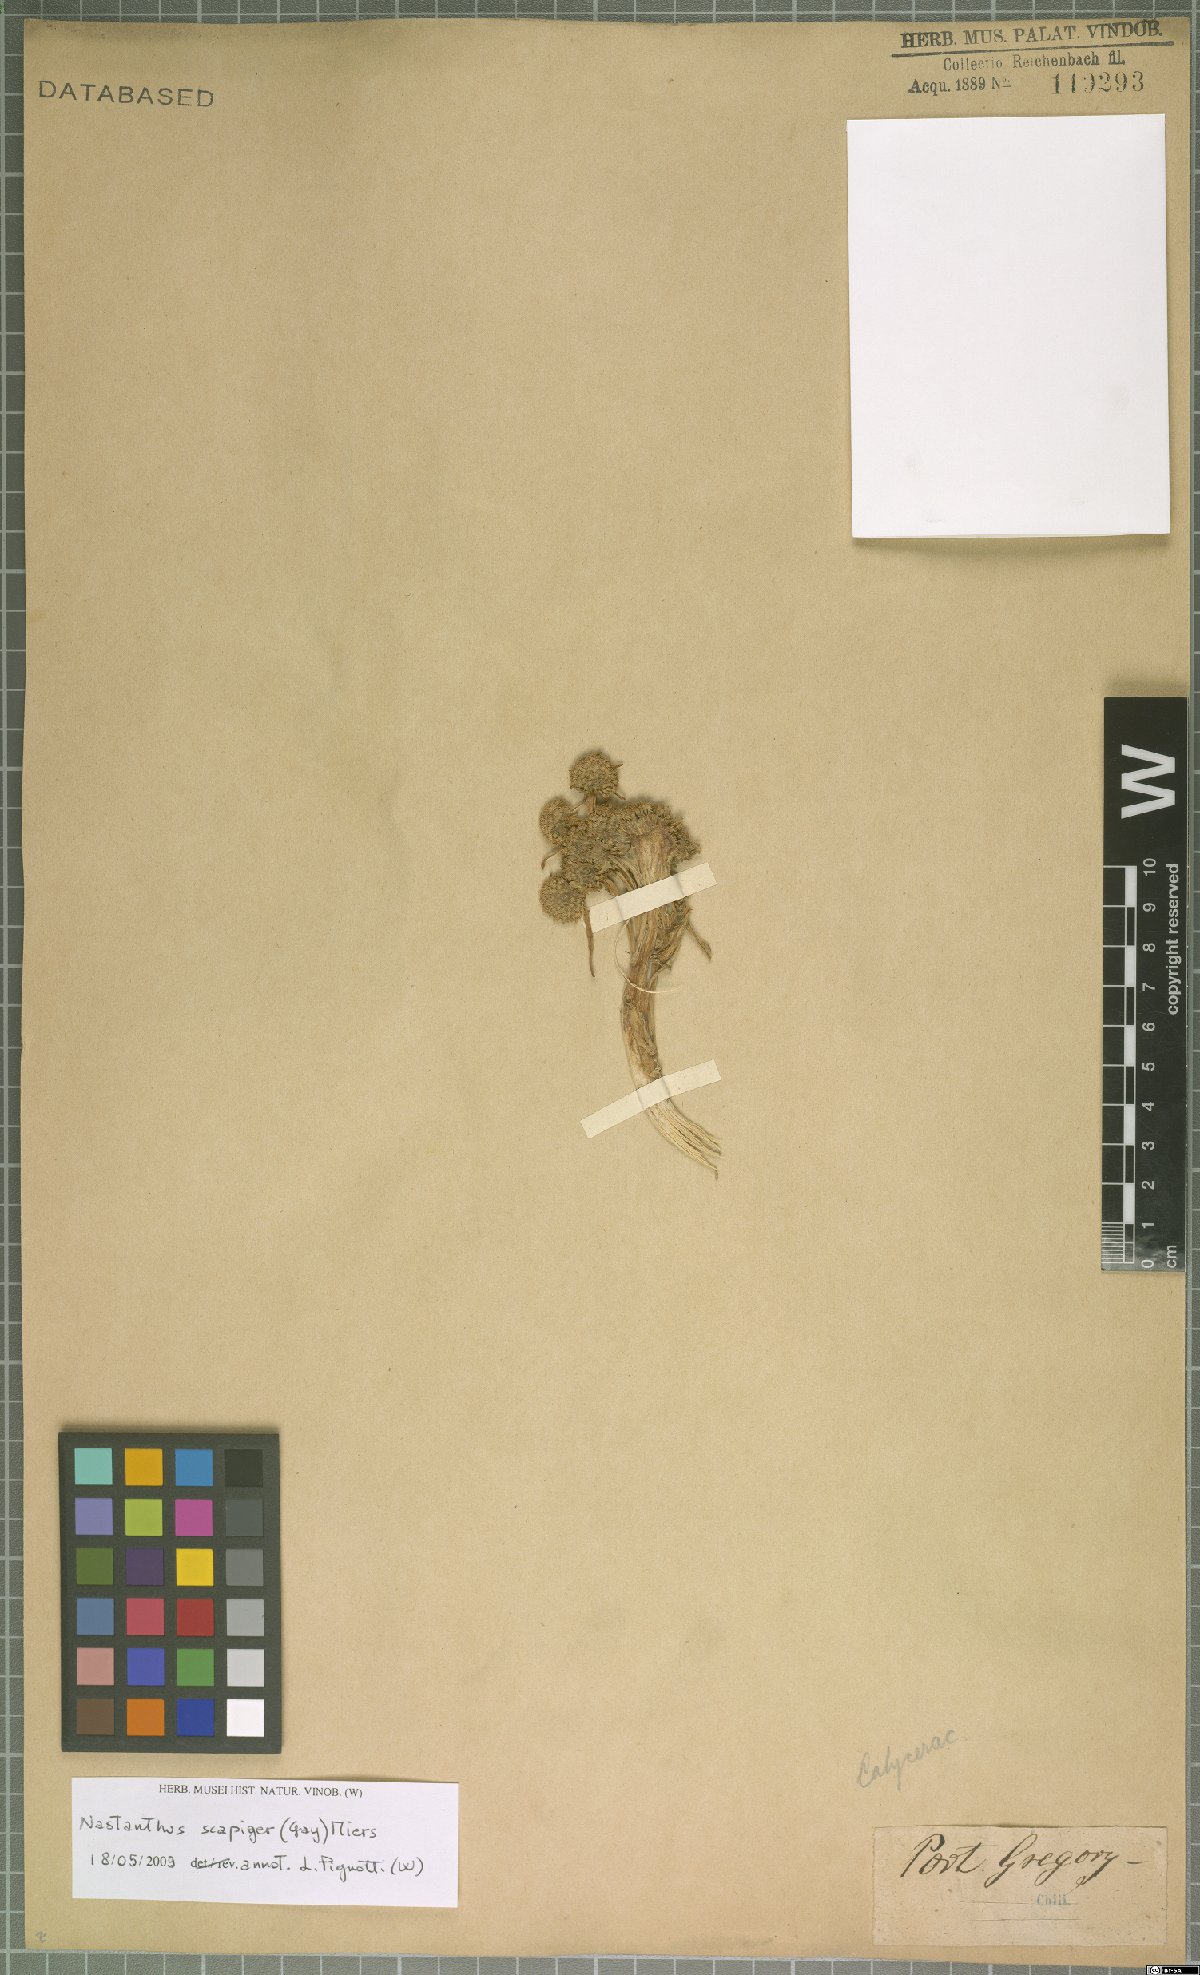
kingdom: Plantae
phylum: Tracheophyta
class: Magnoliopsida
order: Asterales
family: Calyceraceae
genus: Gamocarpha
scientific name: Gamocarpha scapigera
